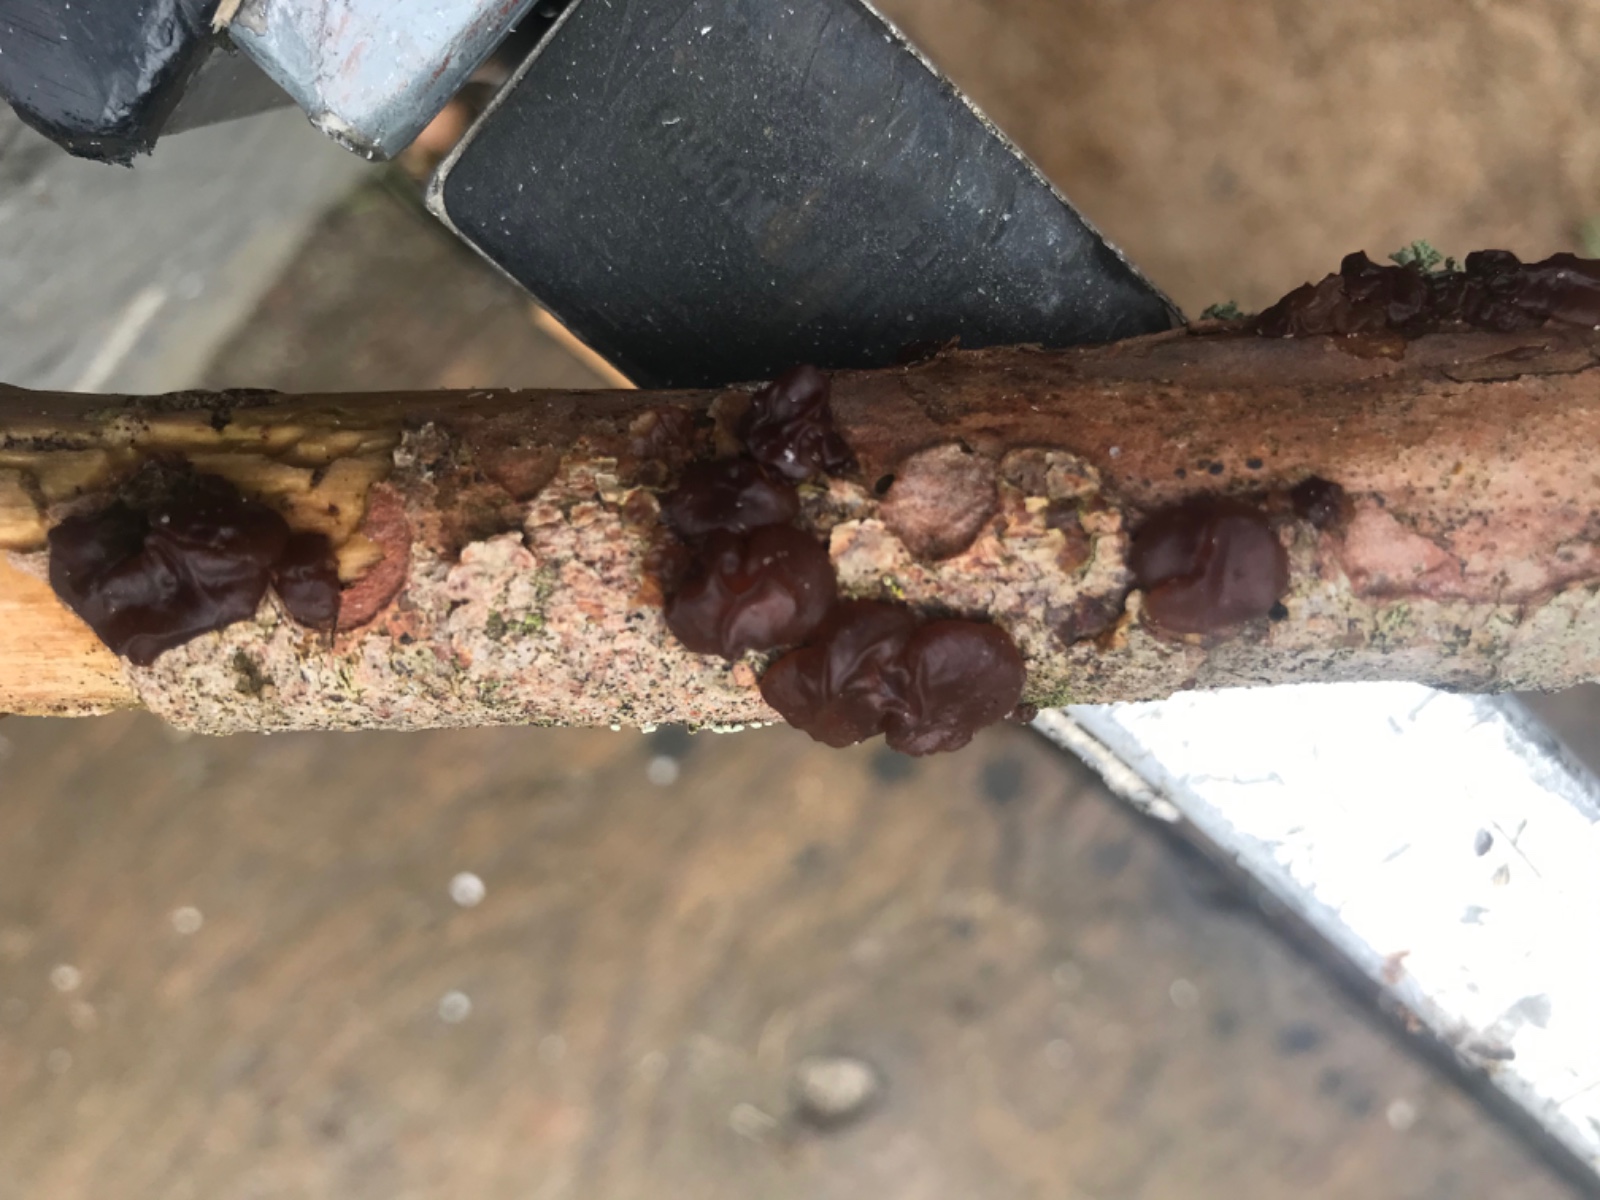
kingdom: Fungi
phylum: Basidiomycota
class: Agaricomycetes
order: Auriculariales
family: Auriculariaceae
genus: Exidia
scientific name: Exidia saccharina
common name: kandis-bævretop
